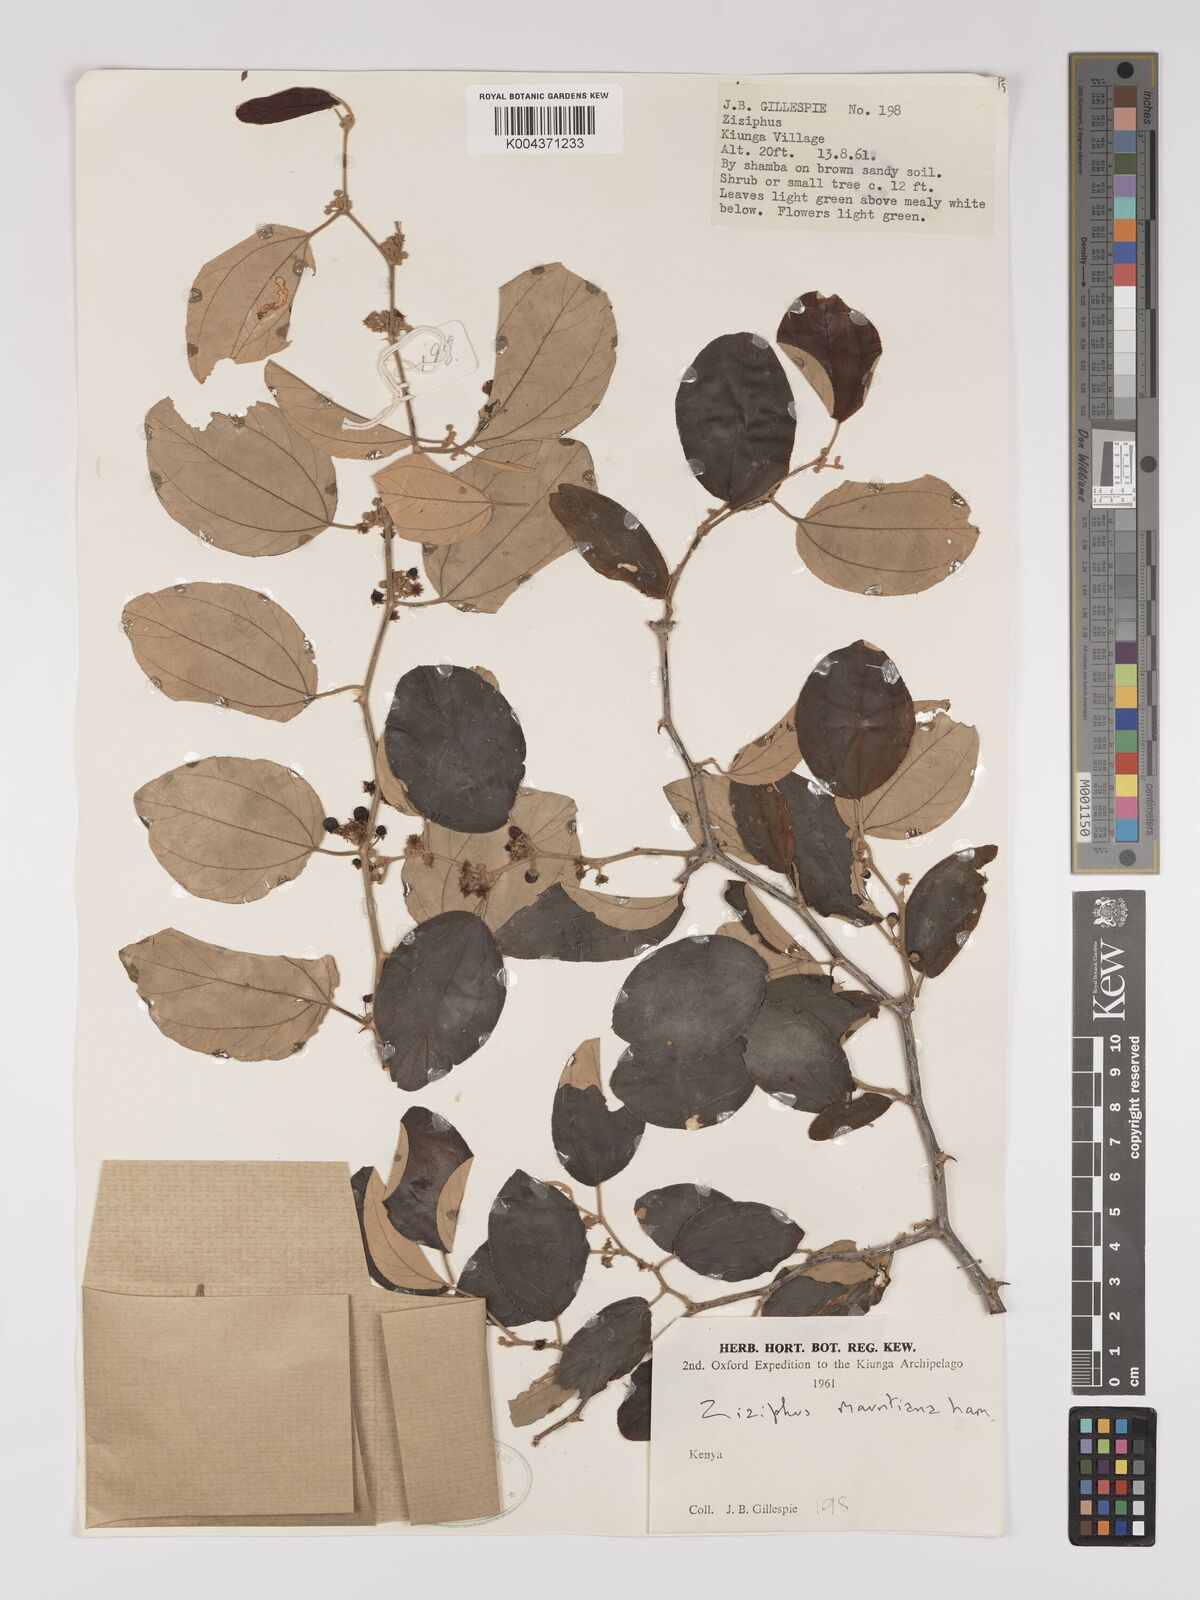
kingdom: Plantae
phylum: Tracheophyta
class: Magnoliopsida
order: Rosales
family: Rhamnaceae
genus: Ziziphus
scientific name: Ziziphus mauritiana
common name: Indian jujube
